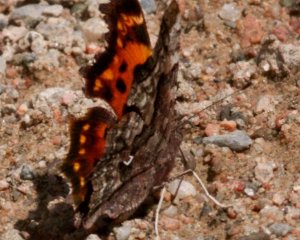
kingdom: Animalia
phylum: Arthropoda
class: Insecta
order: Lepidoptera
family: Nymphalidae
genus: Polygonia
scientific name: Polygonia faunus
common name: Green Comma
